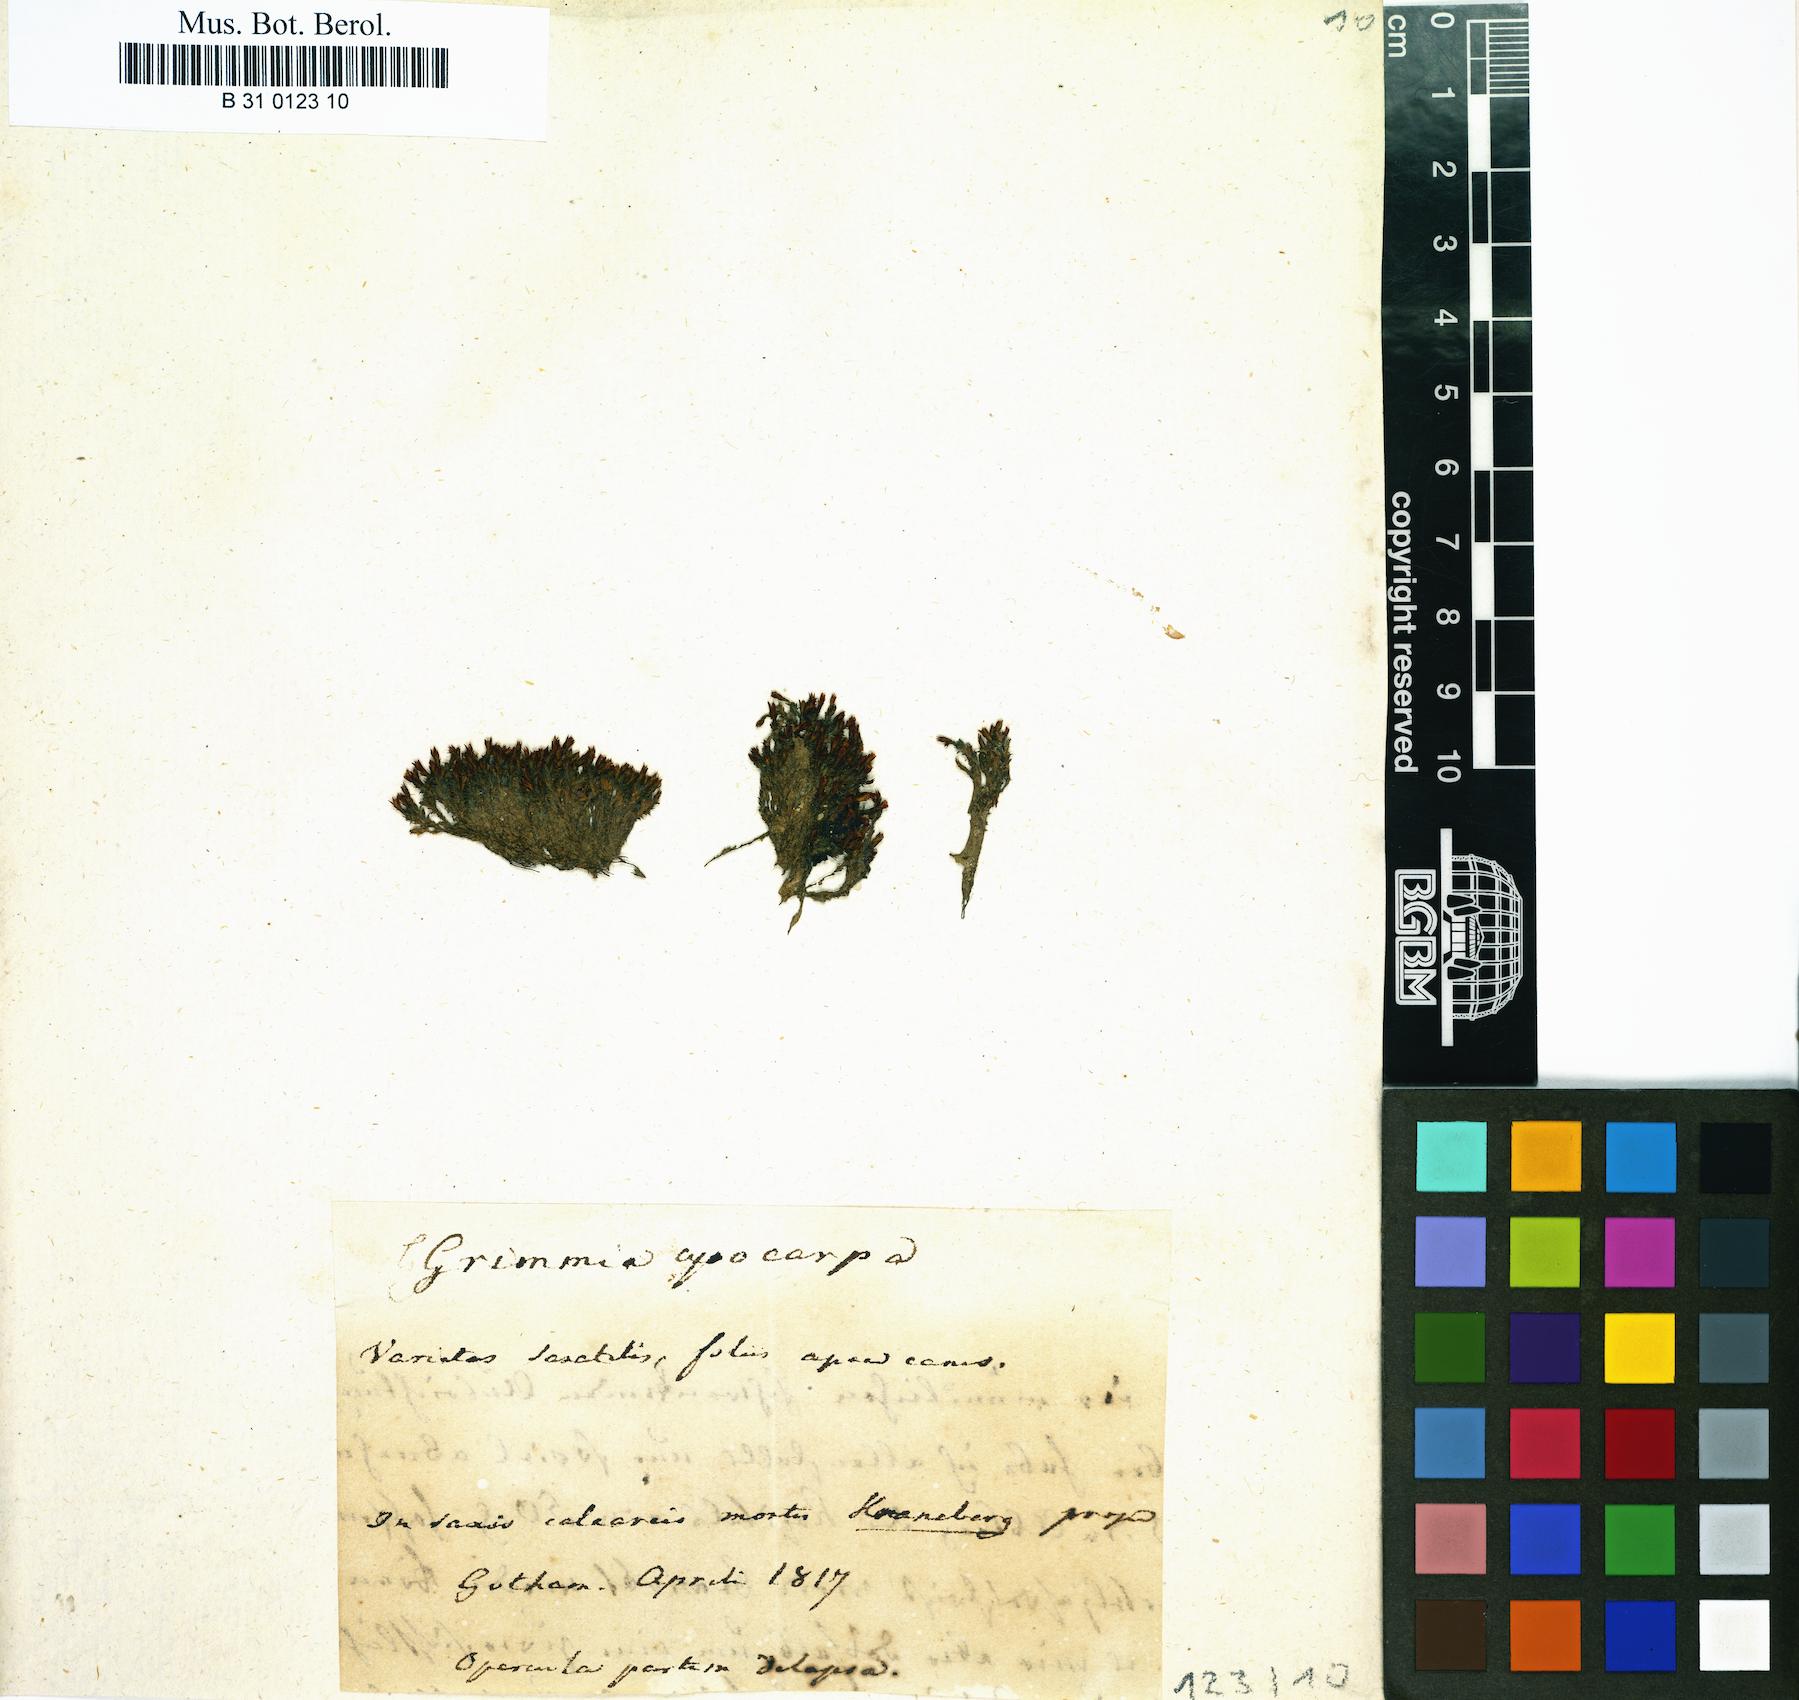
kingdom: Plantae
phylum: Bryophyta
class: Bryopsida
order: Grimmiales
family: Grimmiaceae
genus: Grimmia
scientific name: Grimmia pilifera
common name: Hair grimmia
